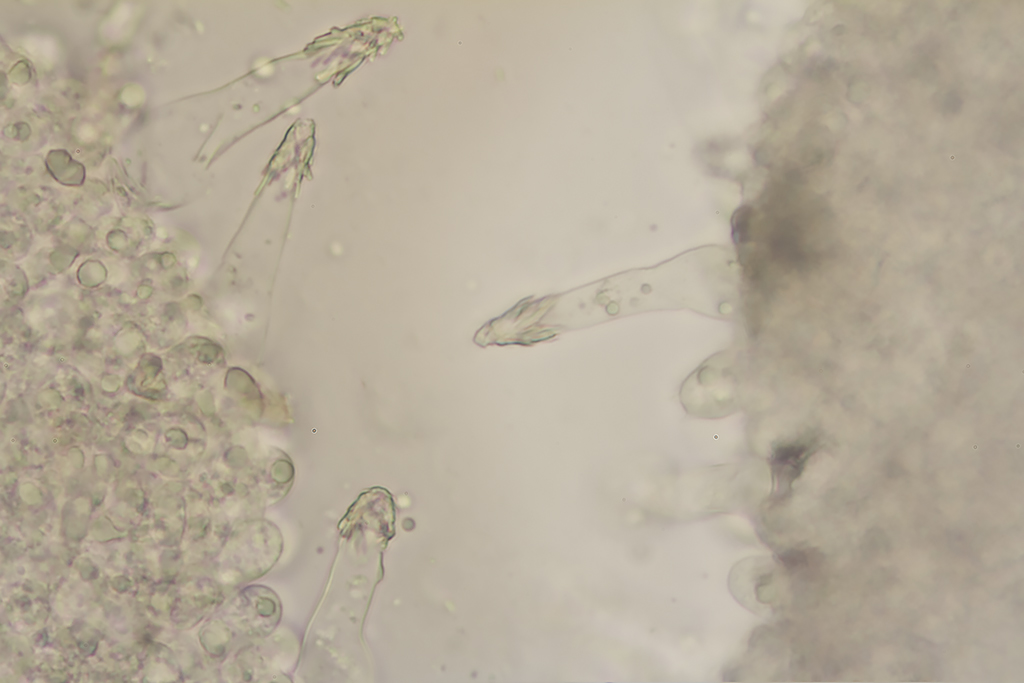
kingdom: Fungi
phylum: Basidiomycota
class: Agaricomycetes
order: Agaricales
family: Tricholomataceae
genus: Melanoleuca
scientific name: Melanoleuca bataillei
